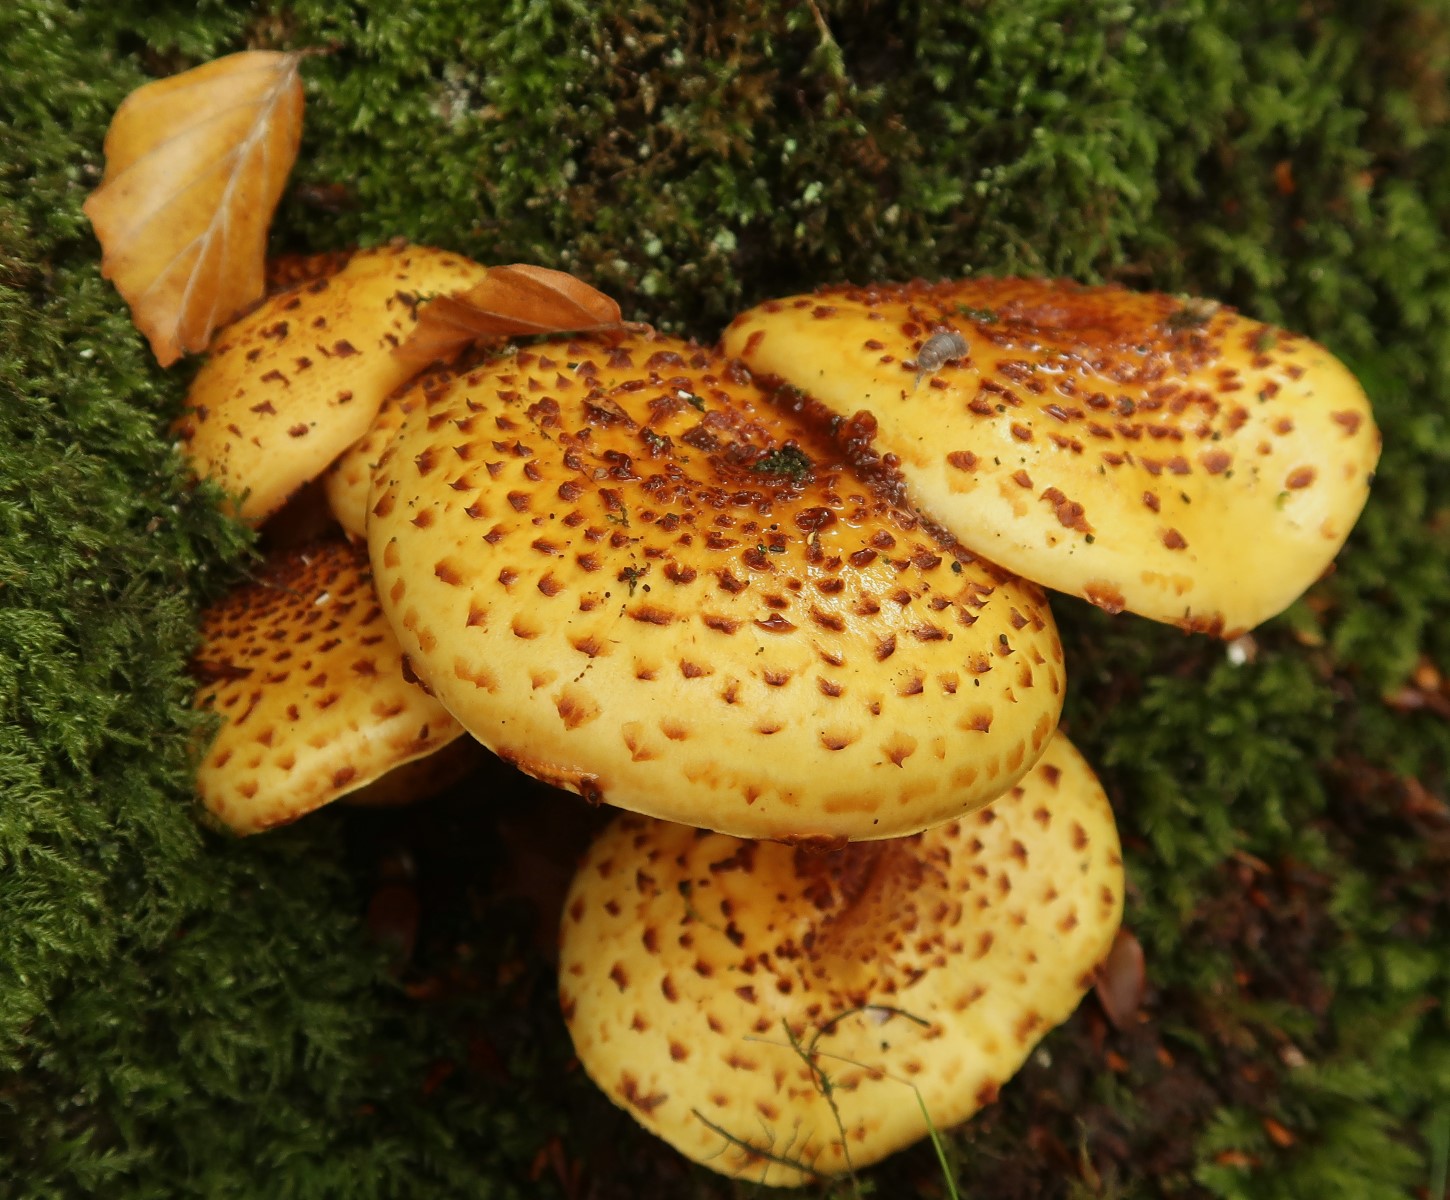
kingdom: Fungi
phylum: Basidiomycota
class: Agaricomycetes
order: Agaricales
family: Strophariaceae
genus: Pholiota
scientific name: Pholiota squarrosa
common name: krumskællet skælhat
